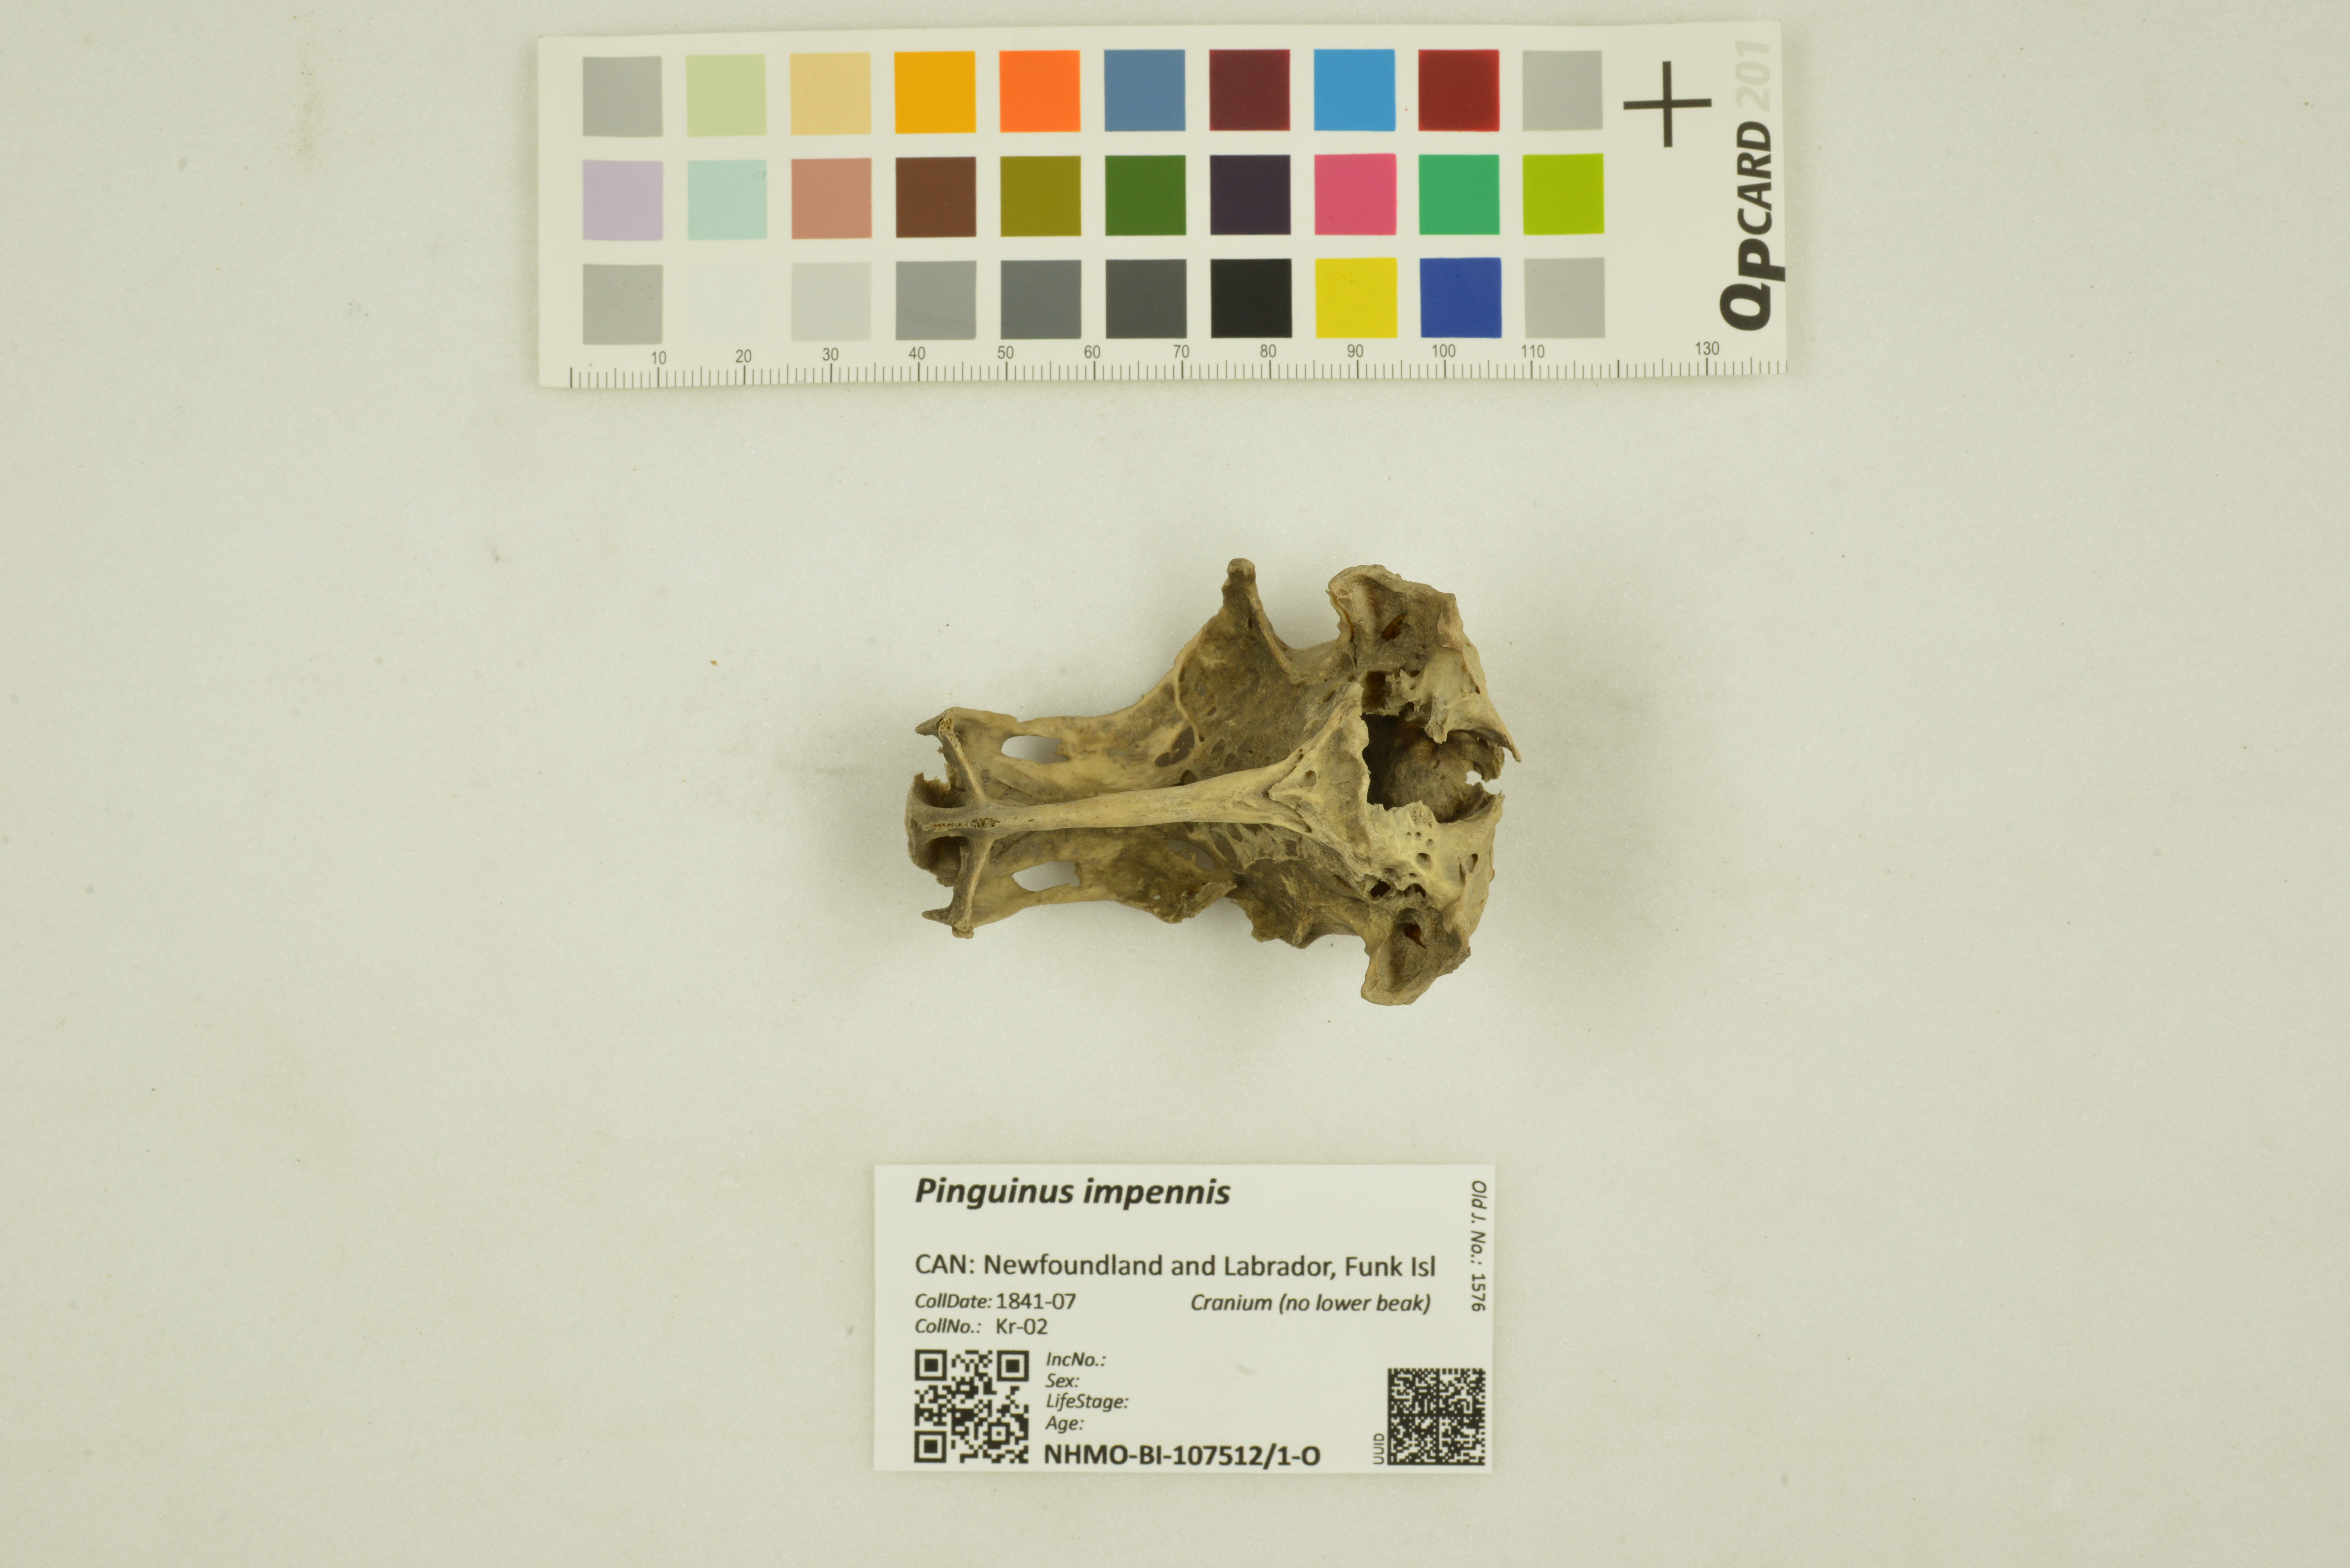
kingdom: Animalia
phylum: Chordata
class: Aves
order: Charadriiformes
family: Alcidae
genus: Pinguinus
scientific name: Pinguinus impennis
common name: Great auk
